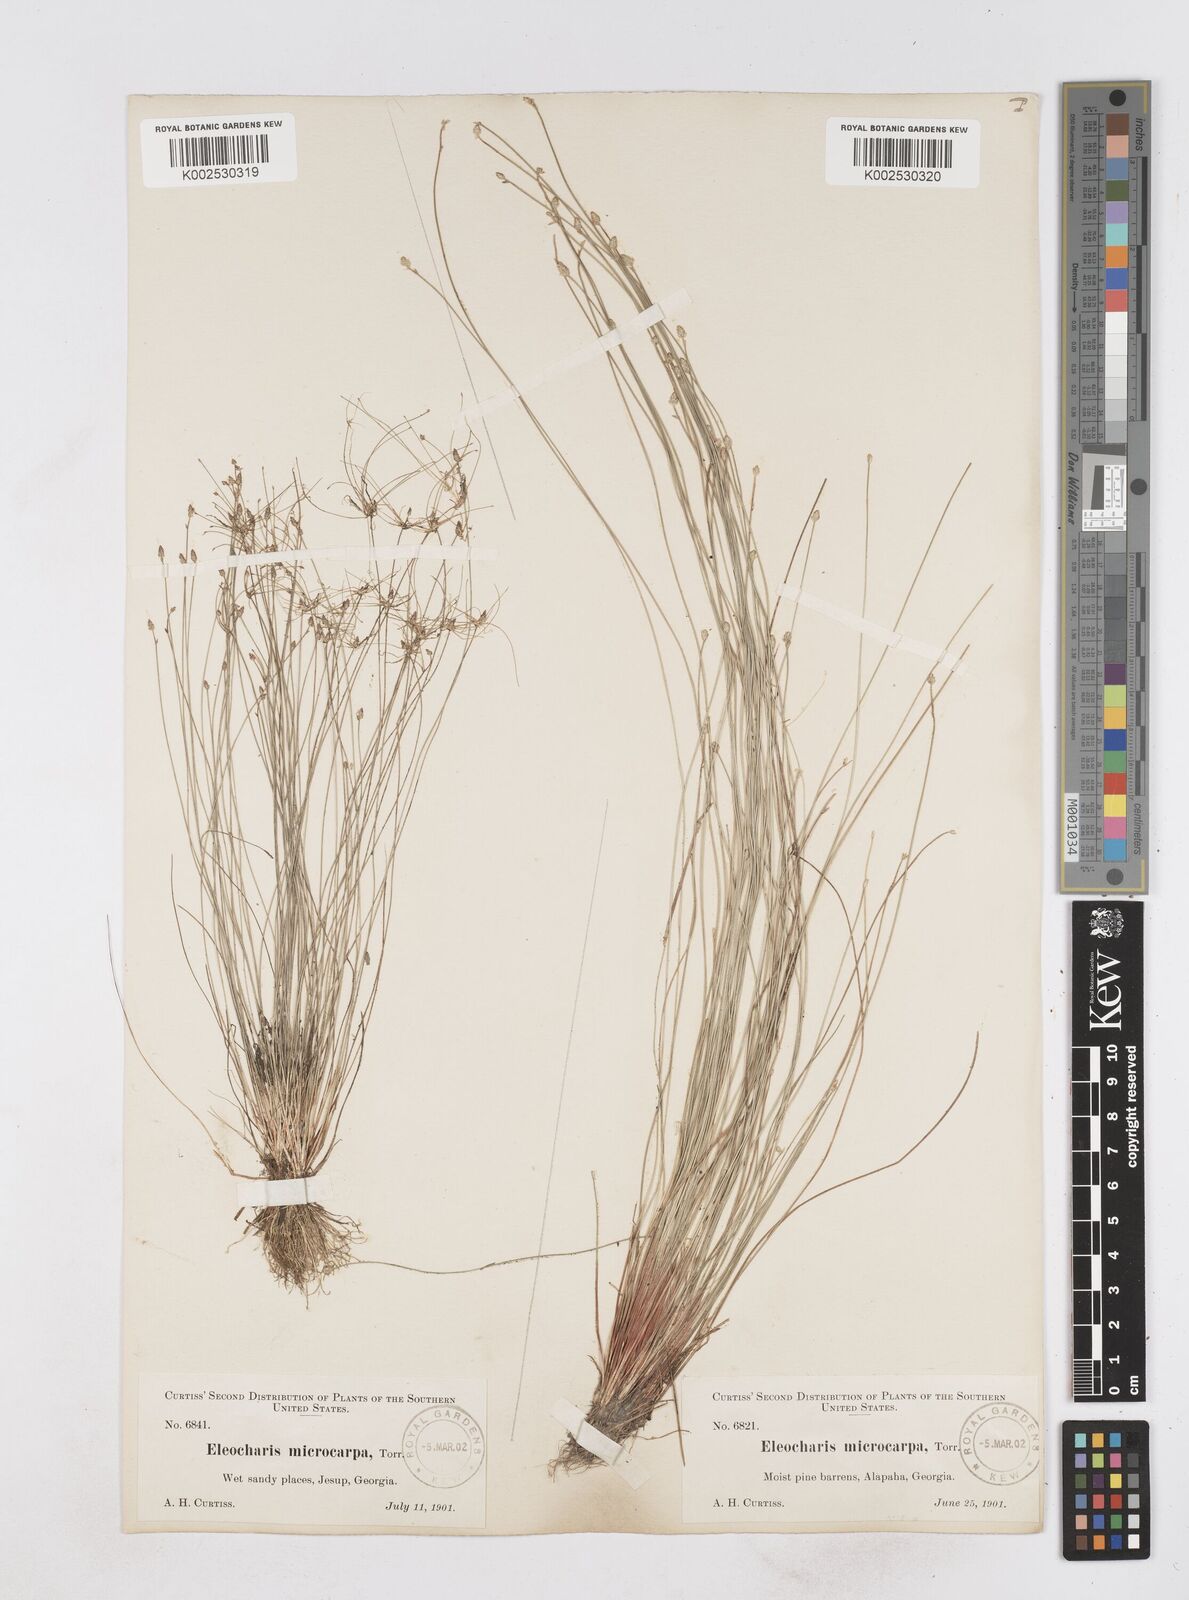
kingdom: Plantae
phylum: Tracheophyta
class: Liliopsida
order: Poales
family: Cyperaceae
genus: Eleocharis
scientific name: Eleocharis microcarpa
